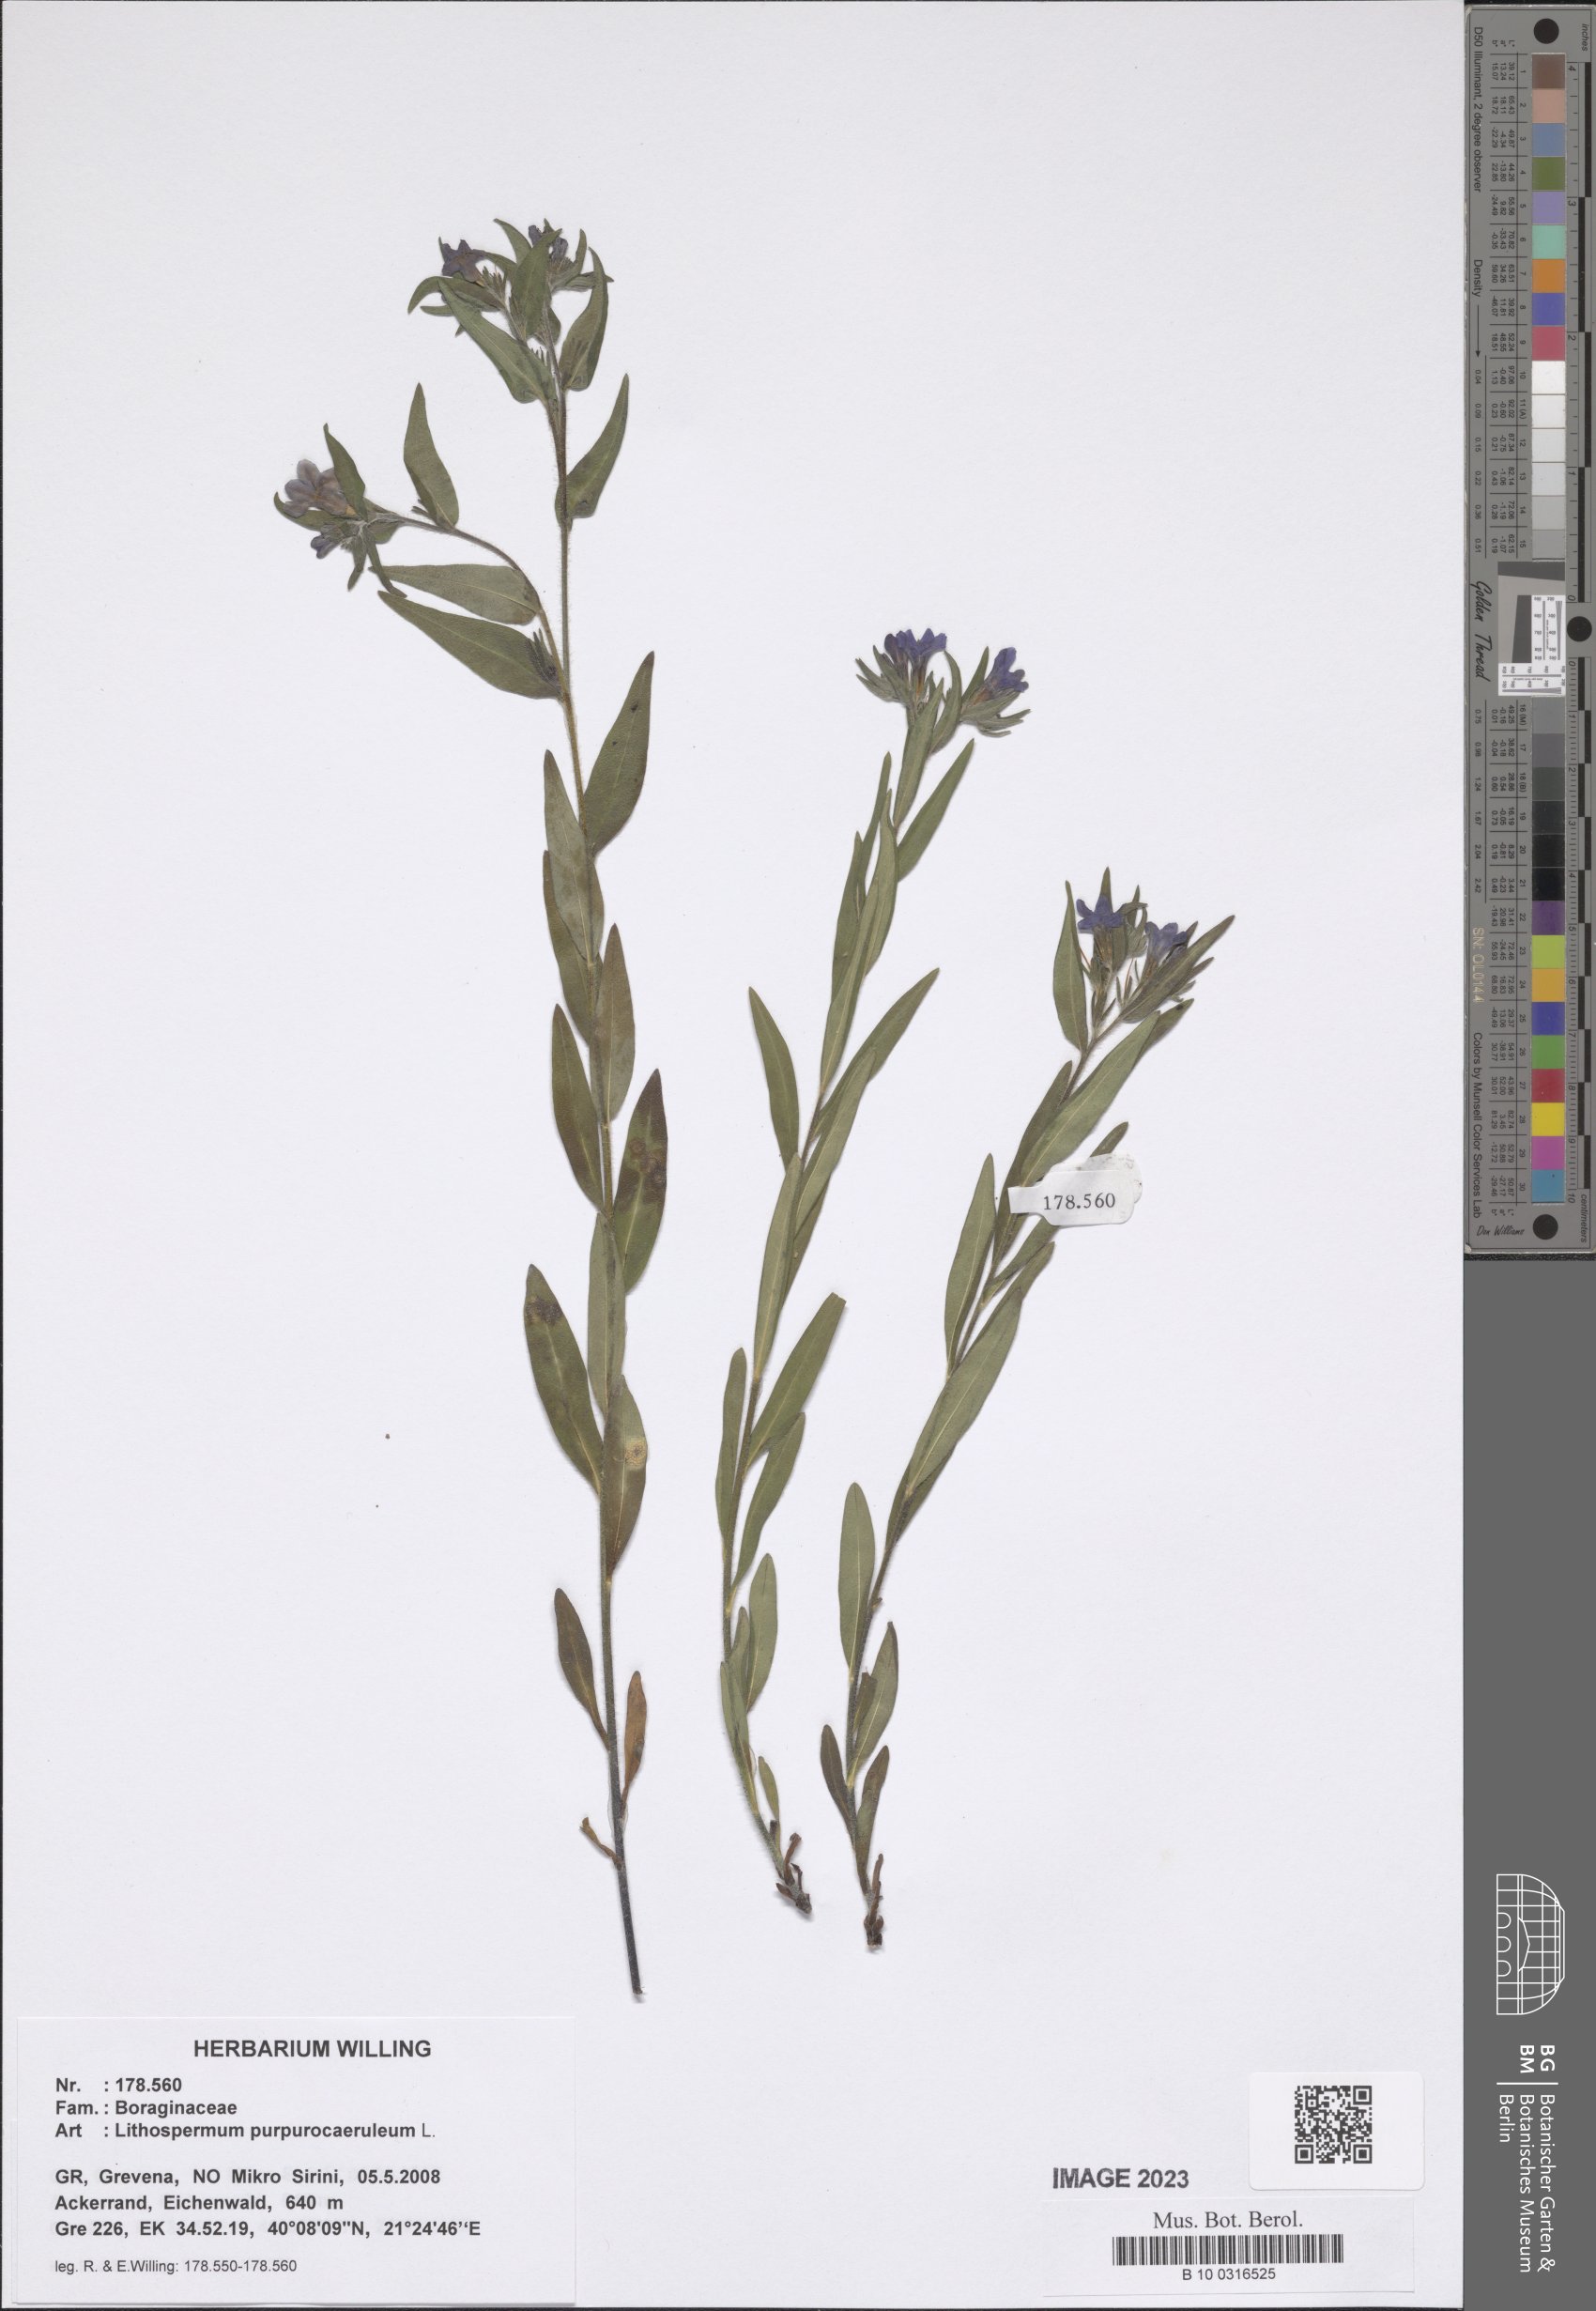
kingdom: Plantae
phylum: Tracheophyta
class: Magnoliopsida
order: Boraginales
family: Boraginaceae
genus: Aegonychon
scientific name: Aegonychon purpurocaeruleum
